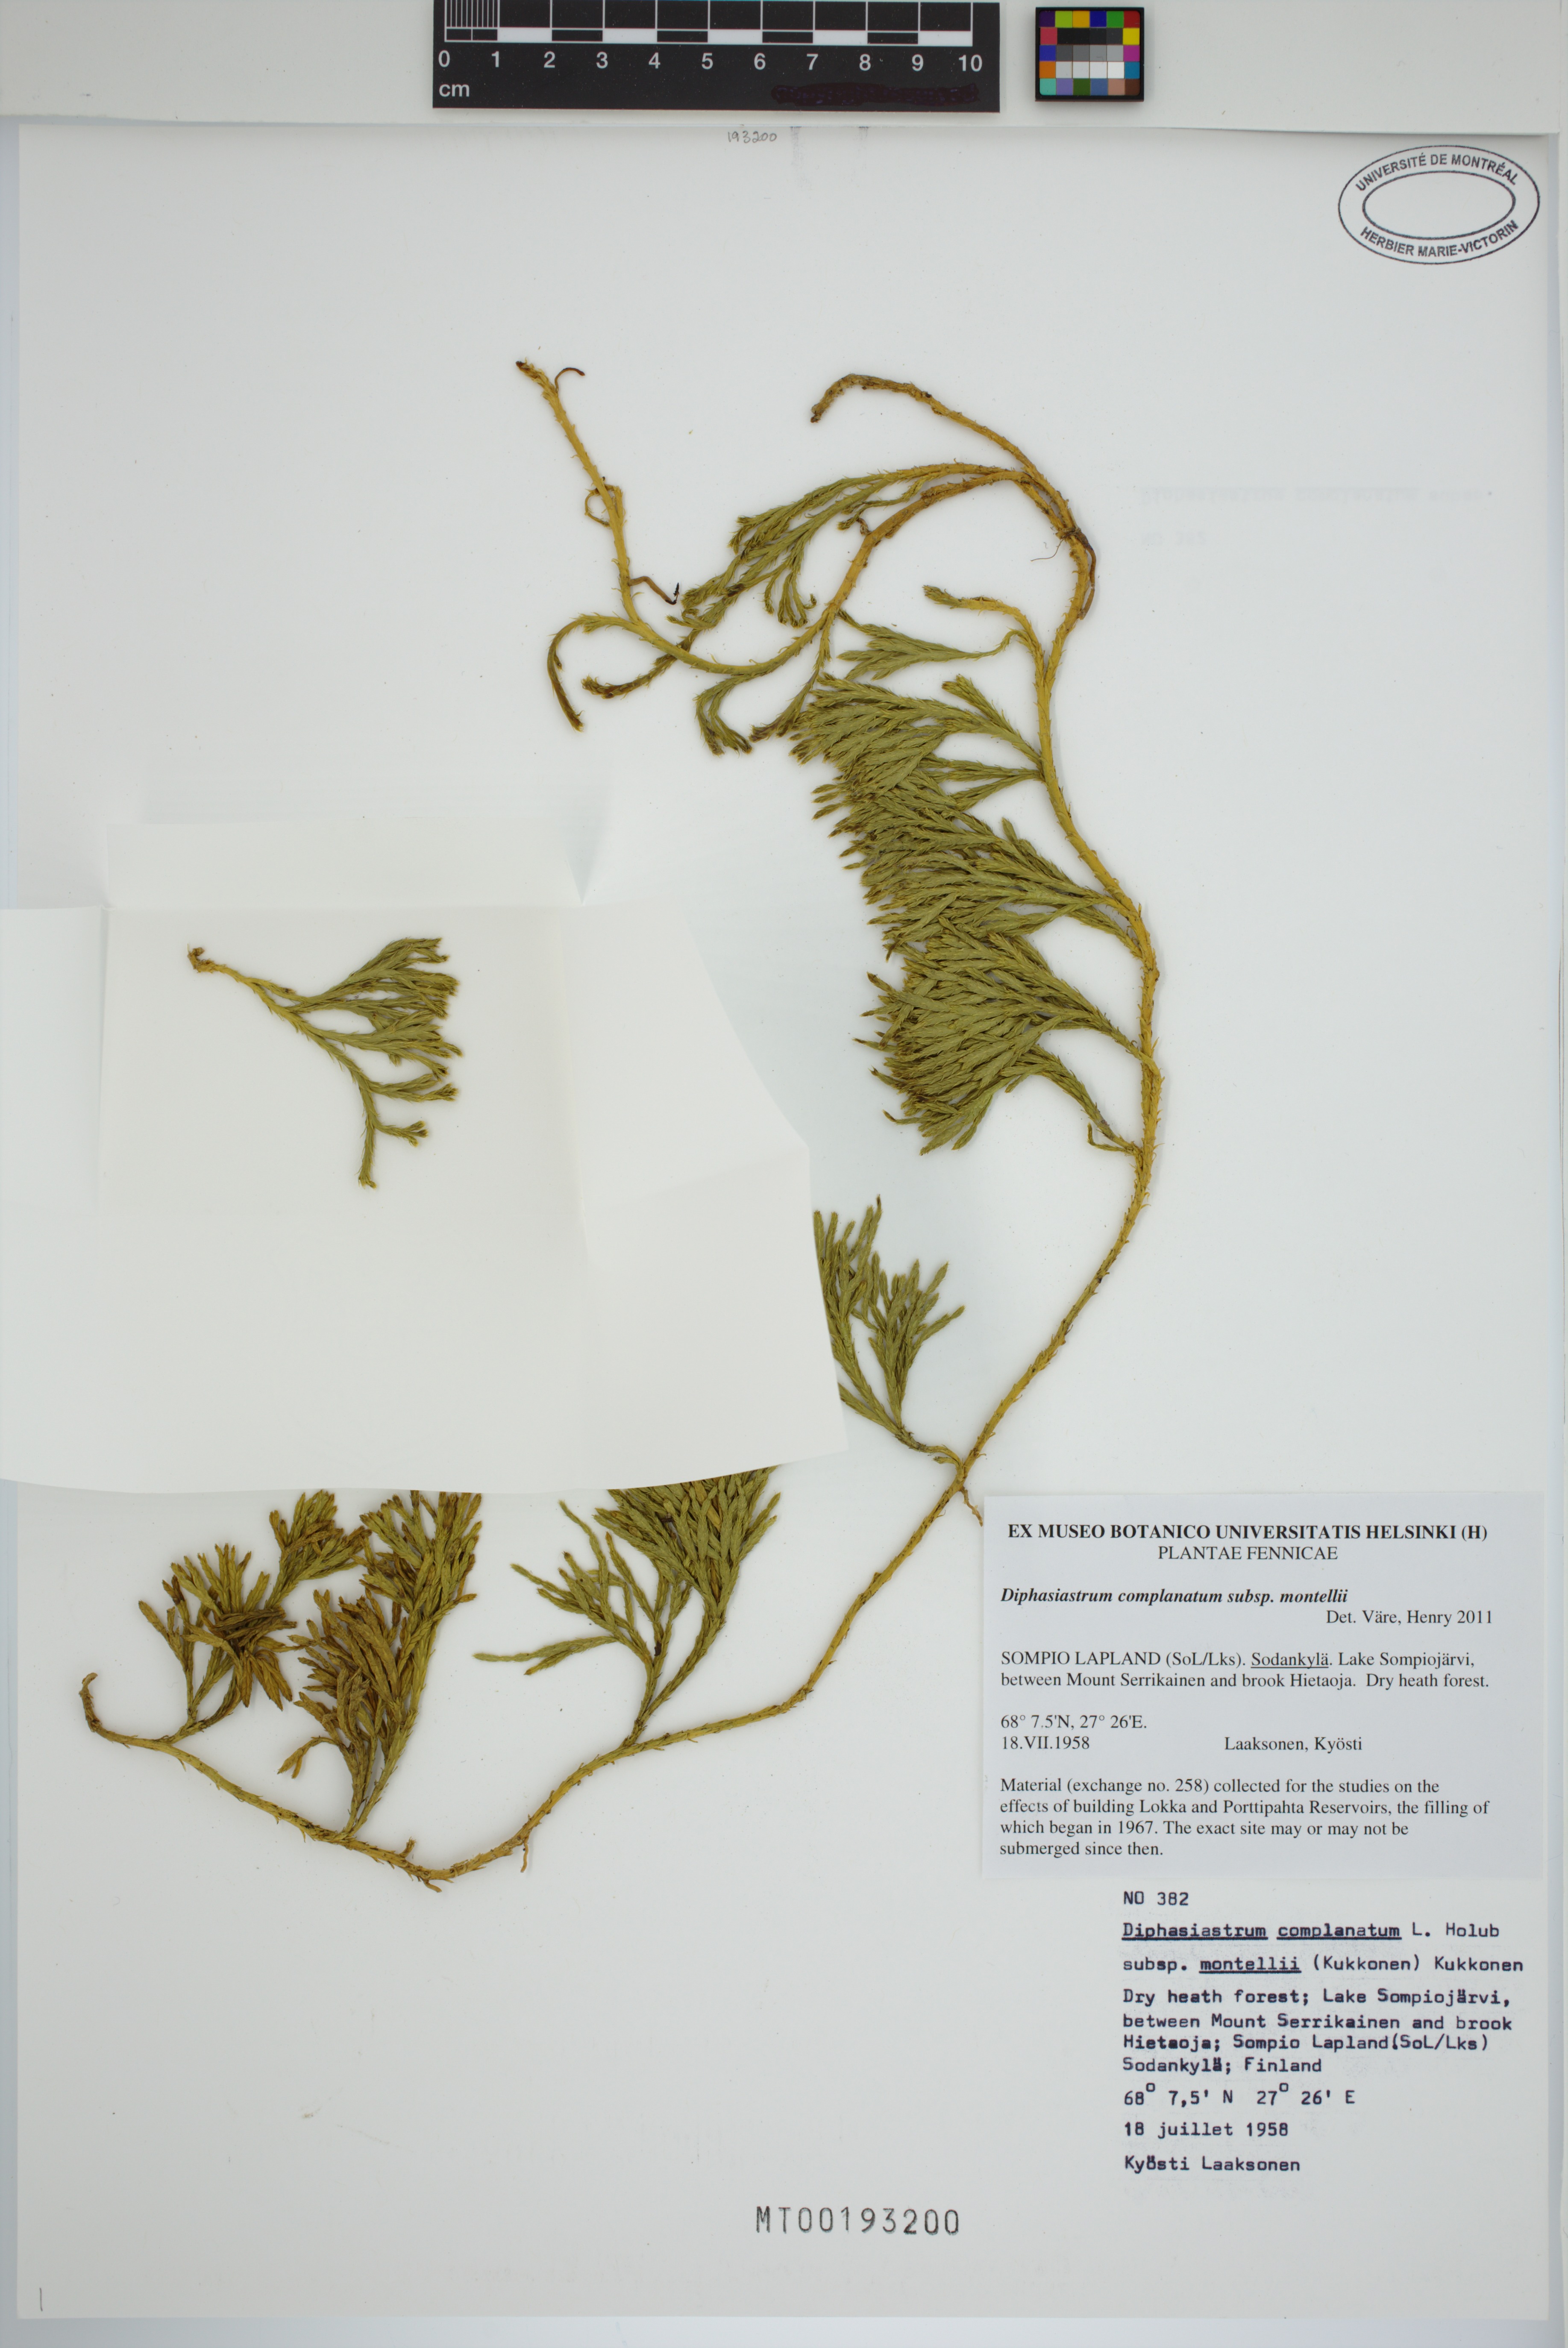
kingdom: Plantae
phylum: Tracheophyta
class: Lycopodiopsida
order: Lycopodiales
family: Lycopodiaceae
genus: Diphasiastrum
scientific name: Diphasiastrum complanatum
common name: Northern running-pine
